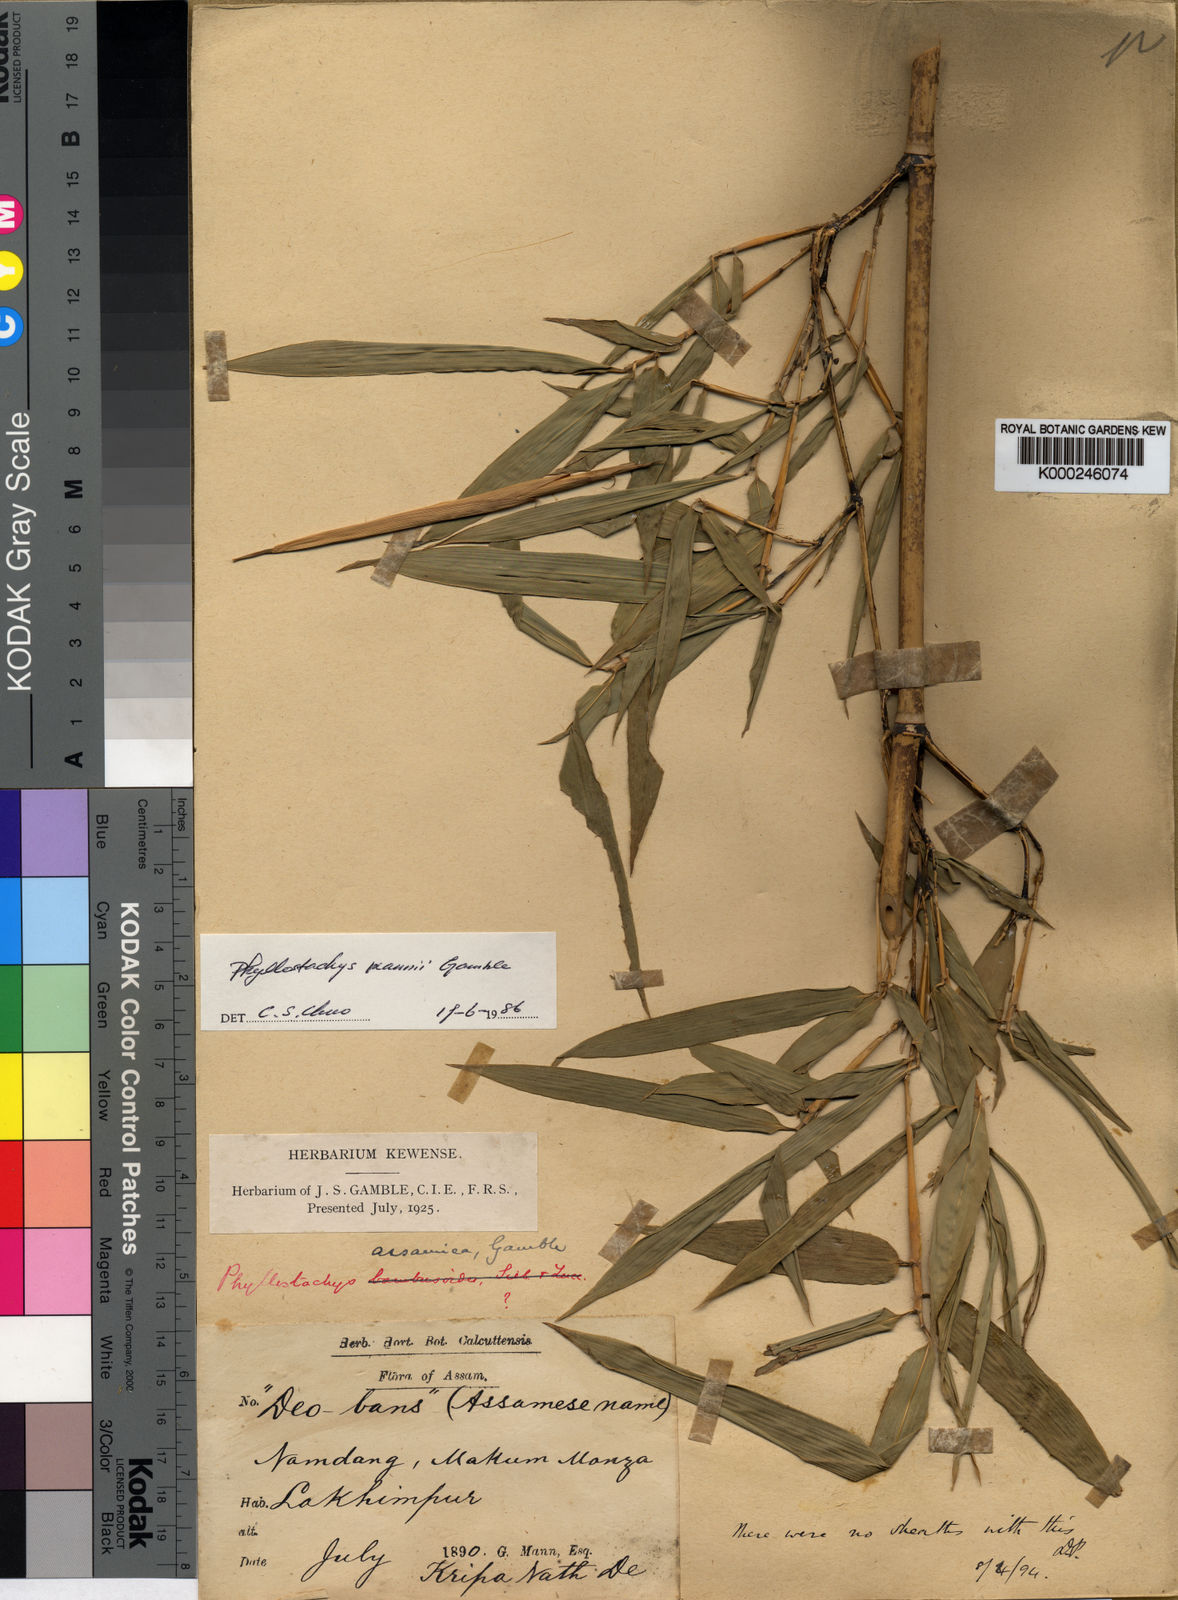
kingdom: Plantae
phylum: Tracheophyta
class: Liliopsida
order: Poales
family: Poaceae
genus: Phyllostachys
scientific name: Phyllostachys mannii
